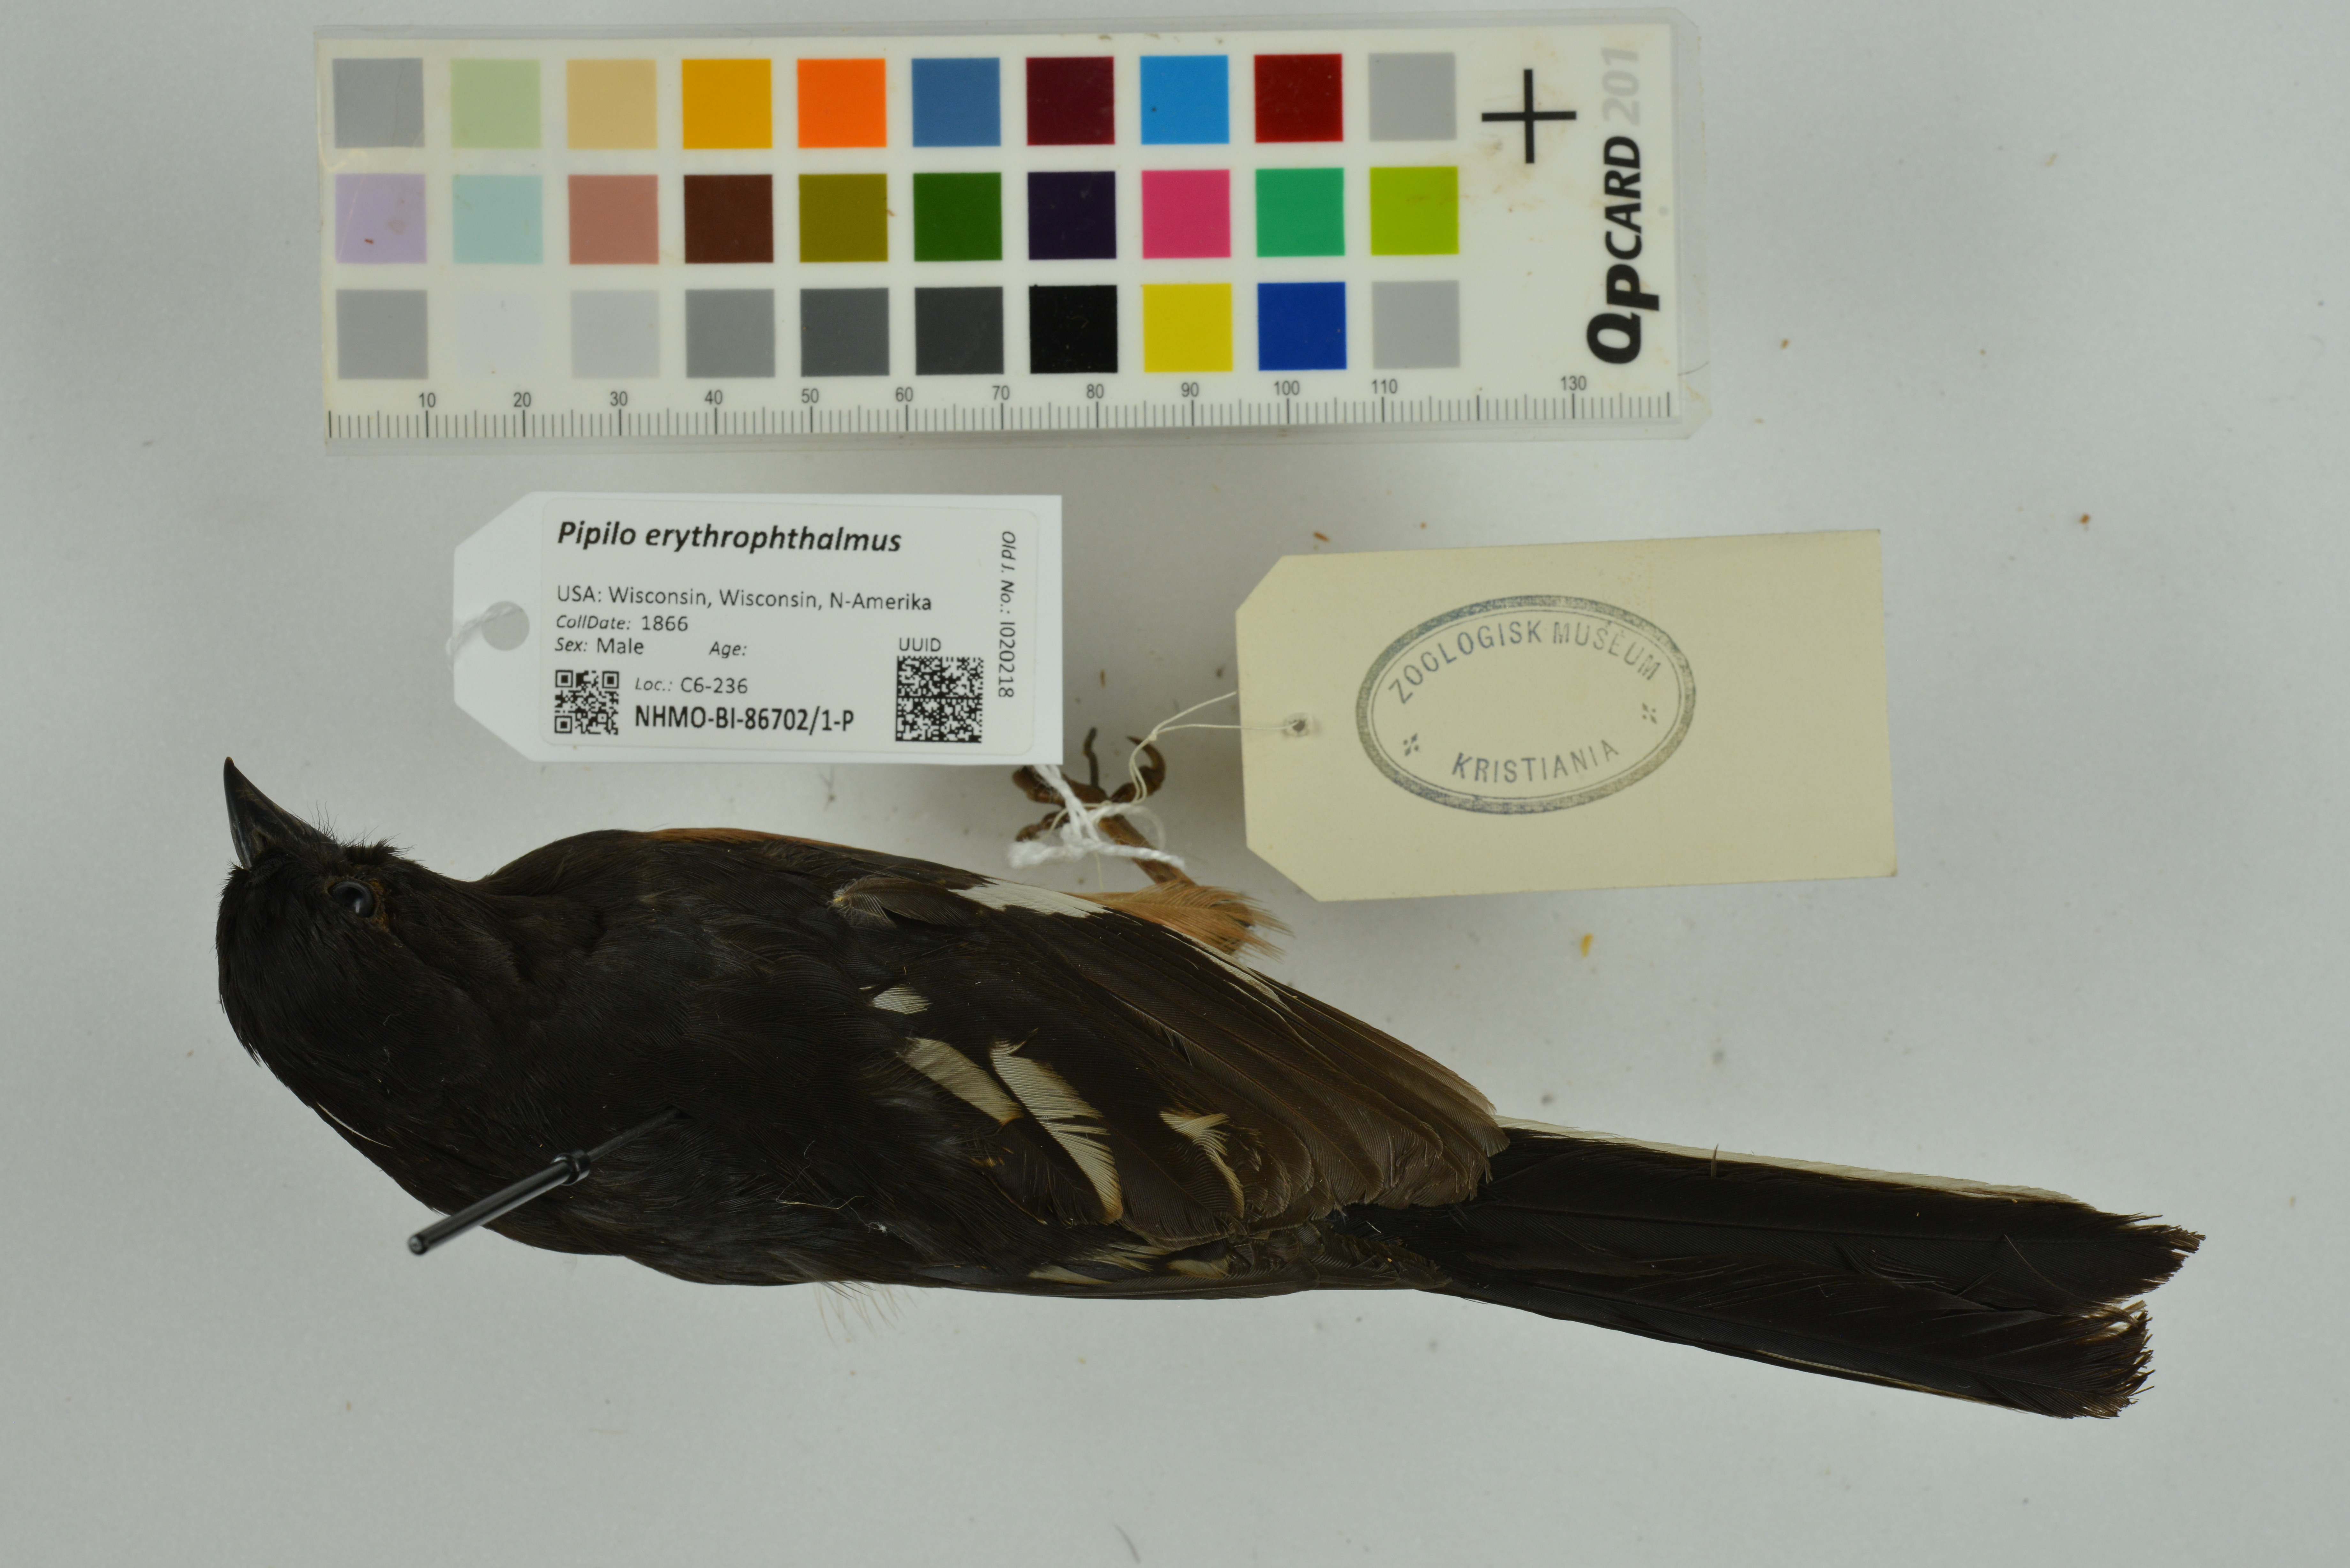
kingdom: Animalia
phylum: Chordata
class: Aves
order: Passeriformes
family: Passerellidae
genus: Pipilo
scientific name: Pipilo erythrophthalmus
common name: Eastern towhee
